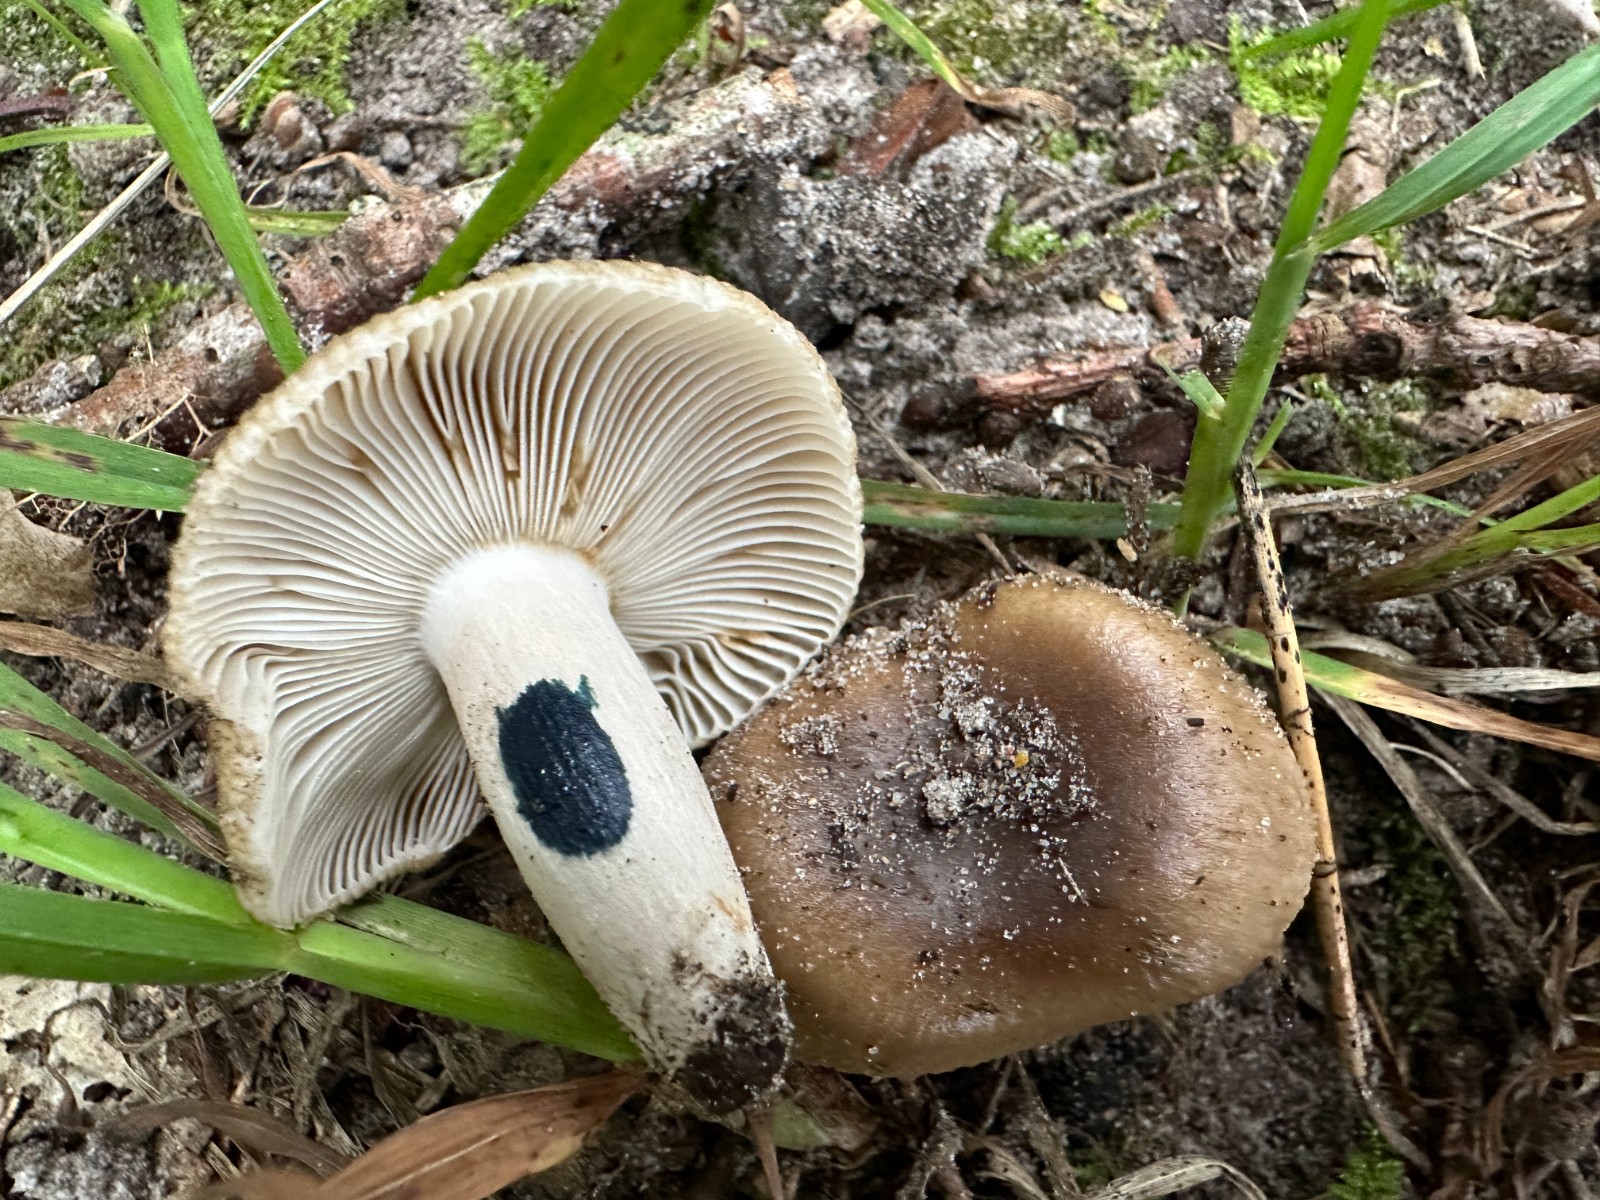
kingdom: Fungi
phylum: Basidiomycota
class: Agaricomycetes
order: Russulales
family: Russulaceae
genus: Russula
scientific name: Russula amoenolens
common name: skarp kam-skørhat
